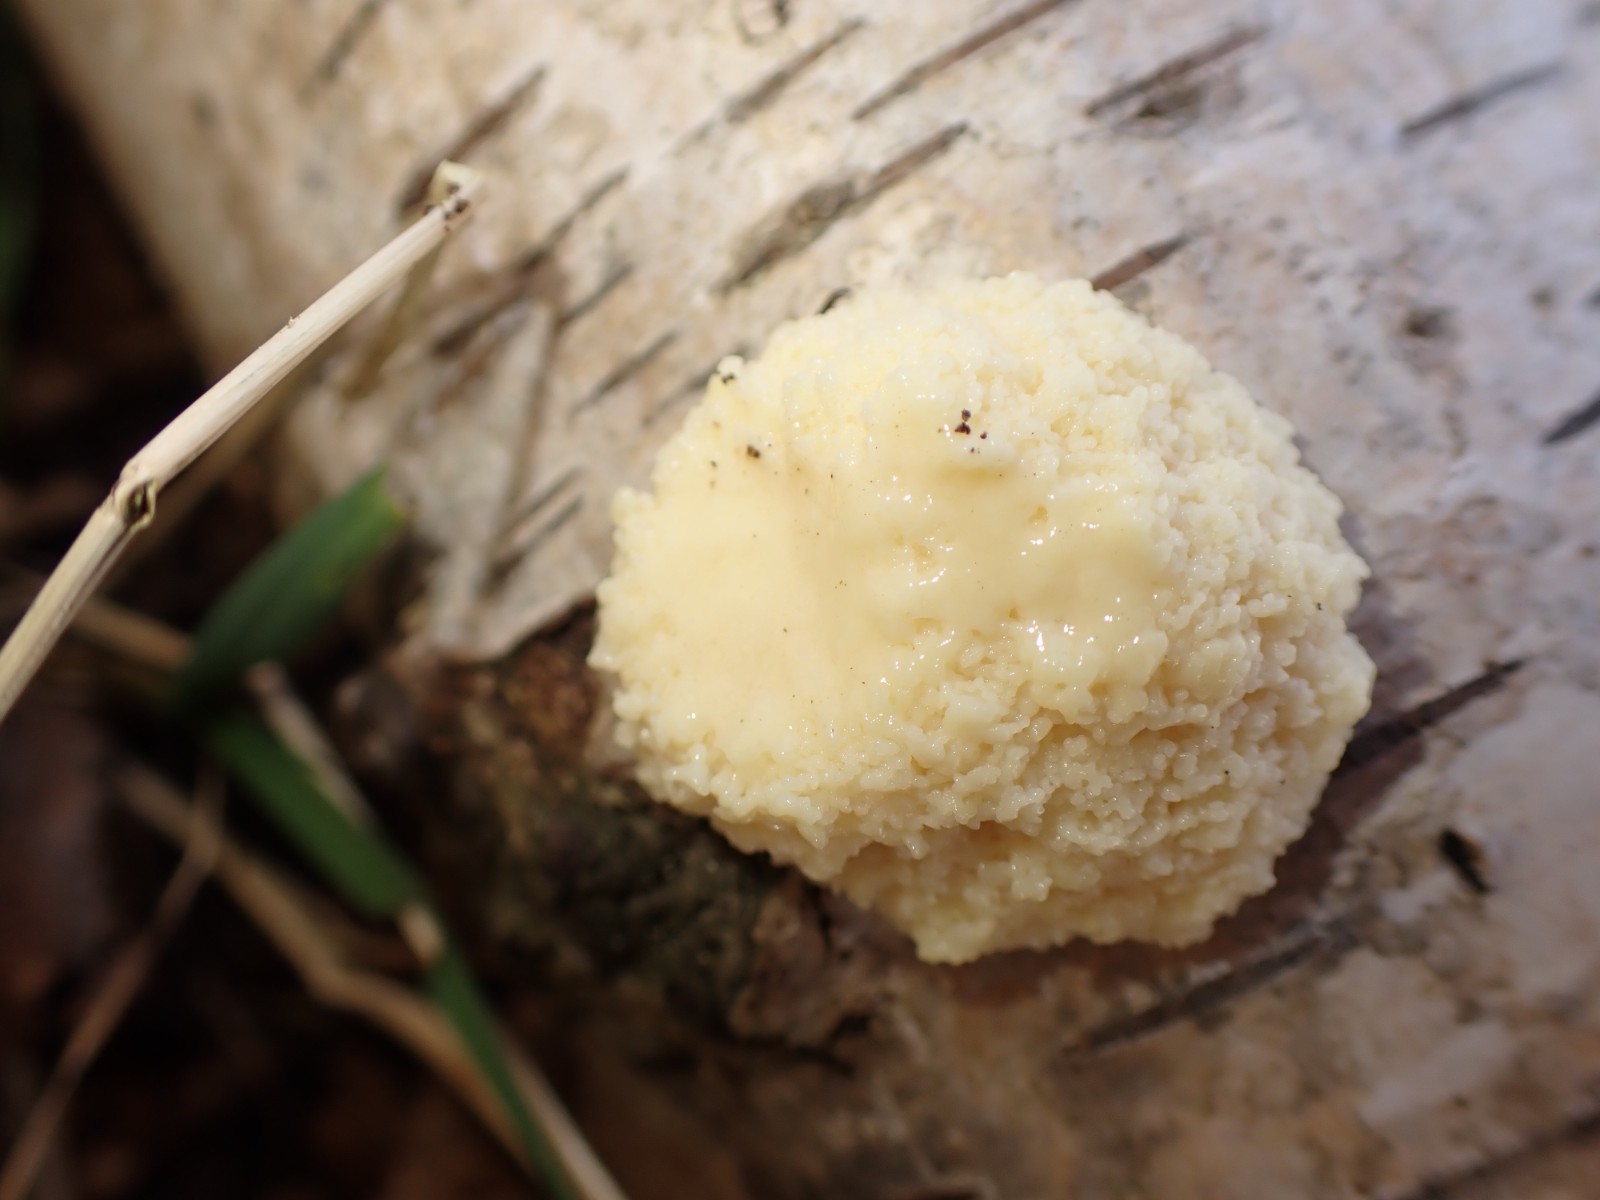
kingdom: Protozoa
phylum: Mycetozoa
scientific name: Mycetozoa
